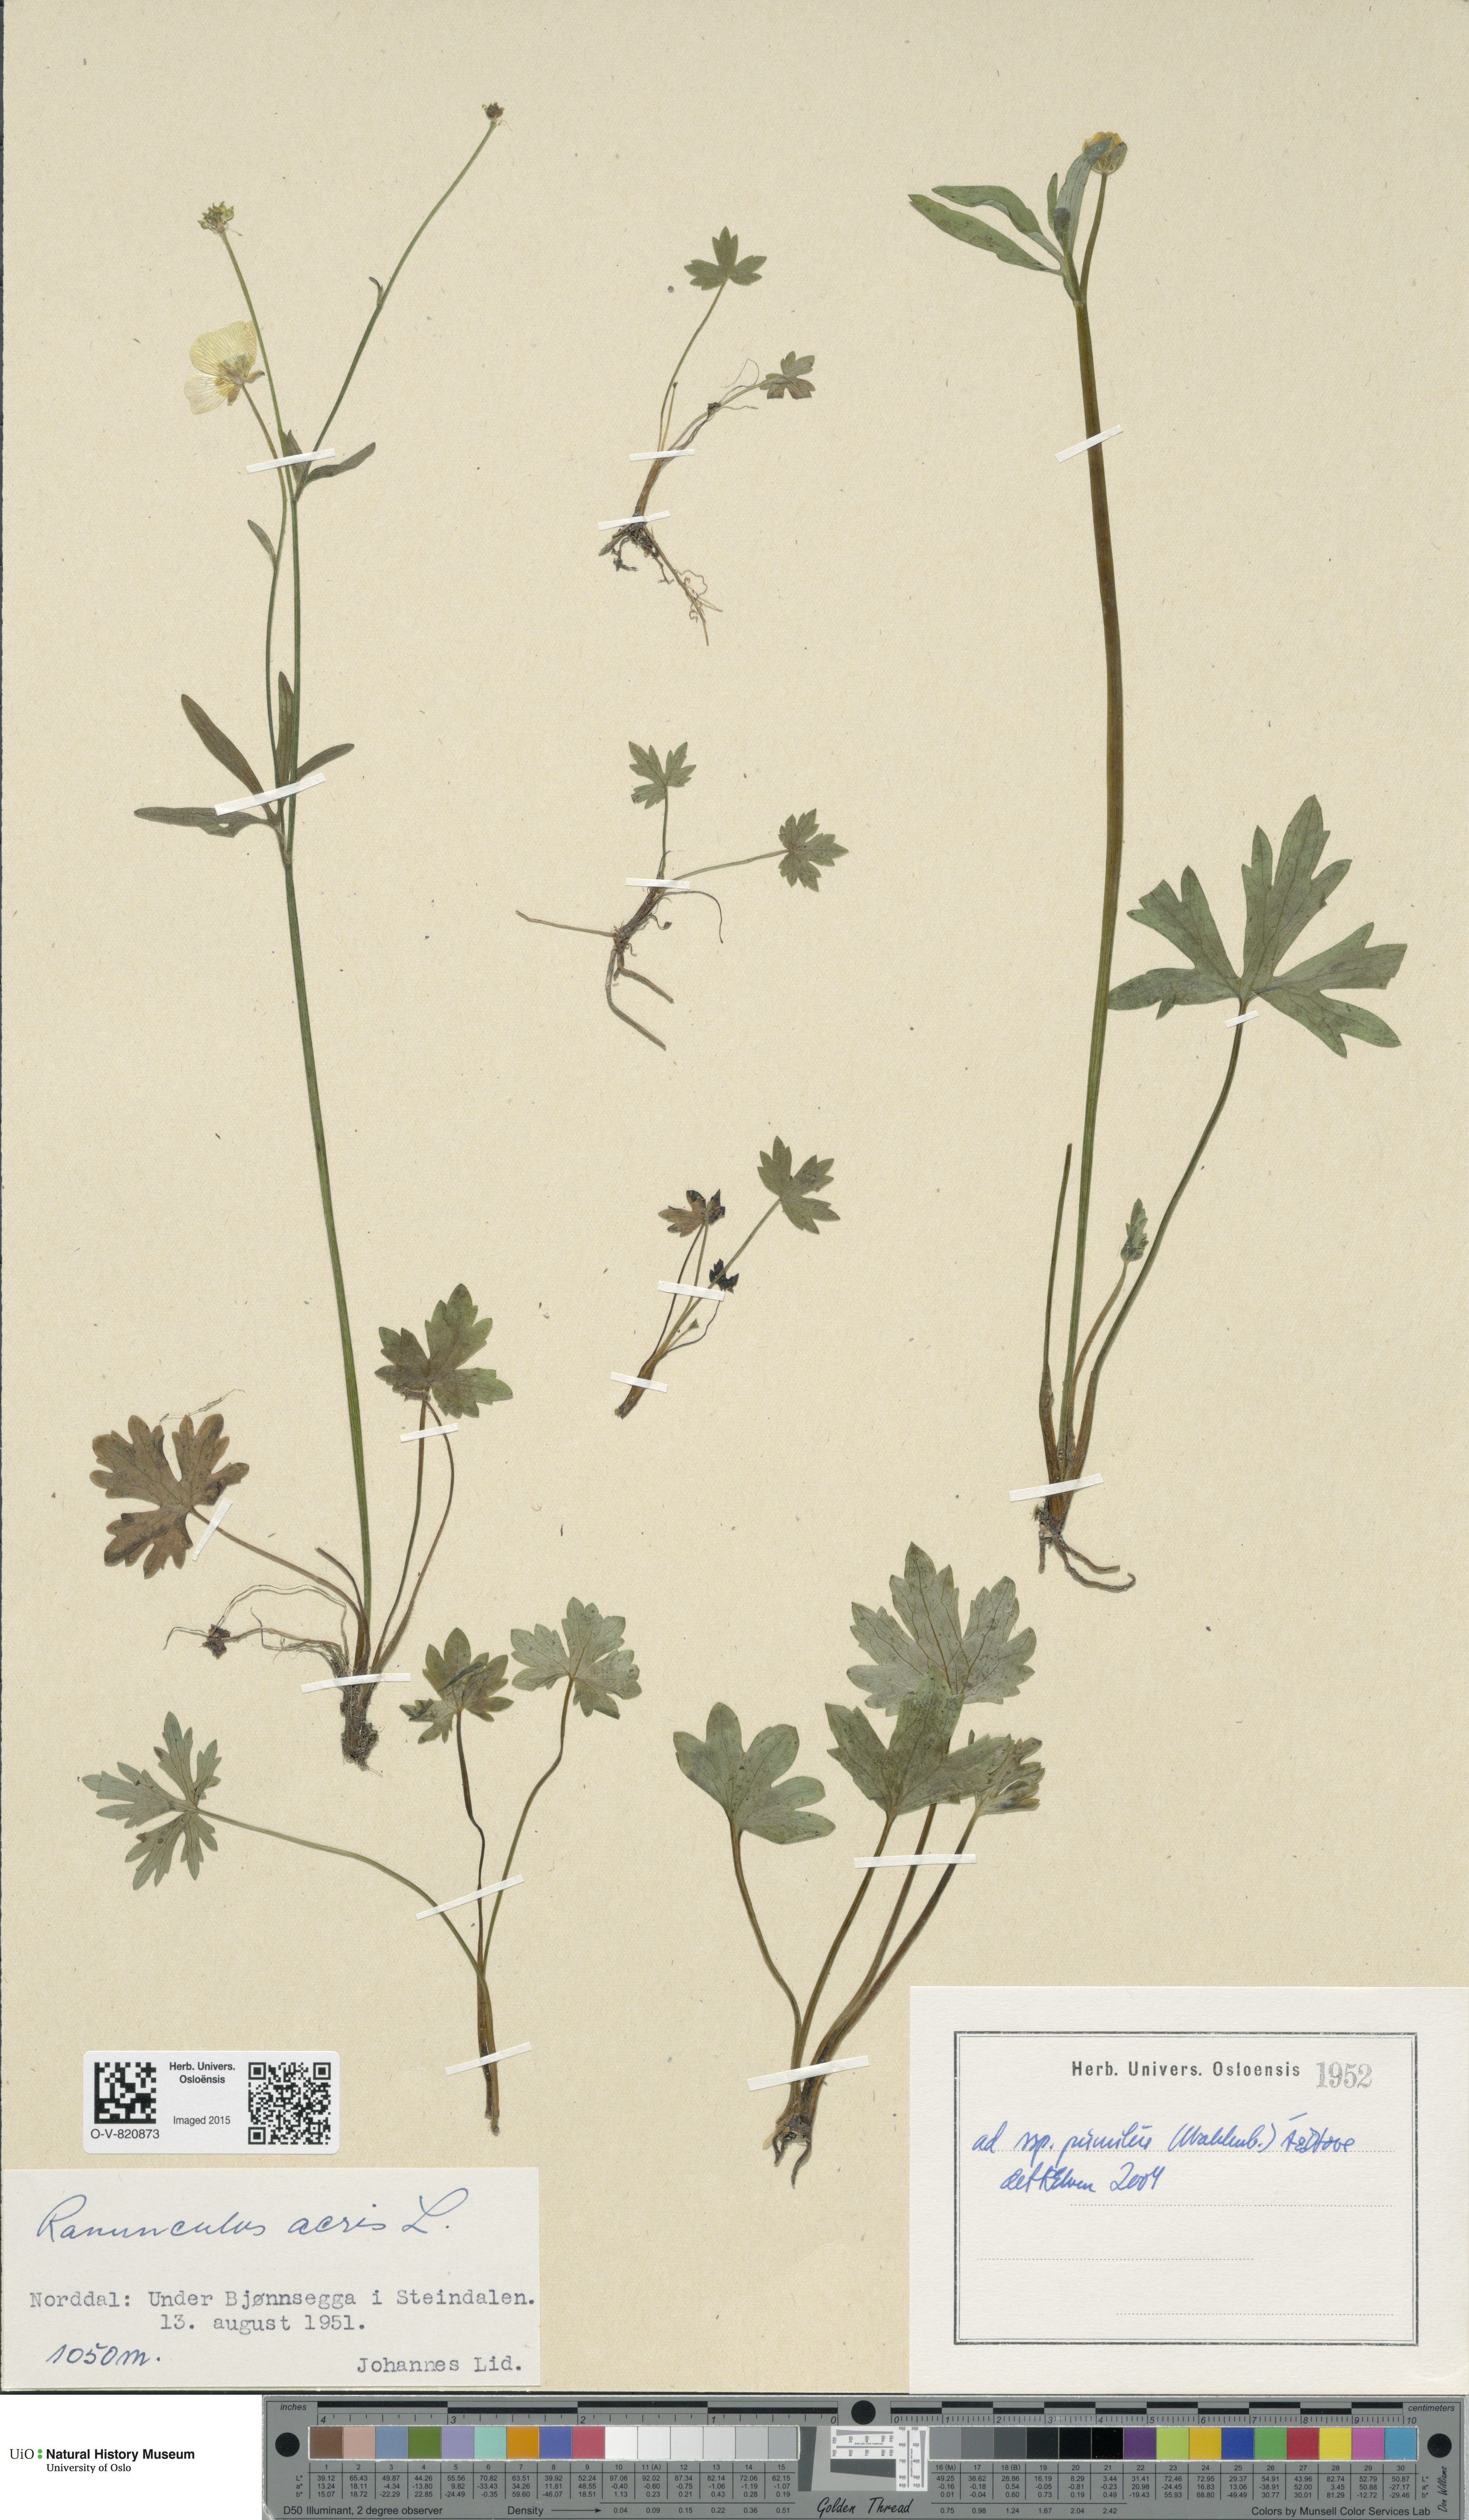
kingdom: Plantae
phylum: Tracheophyta
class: Magnoliopsida
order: Ranunculales
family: Ranunculaceae
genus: Ranunculus
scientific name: Ranunculus
